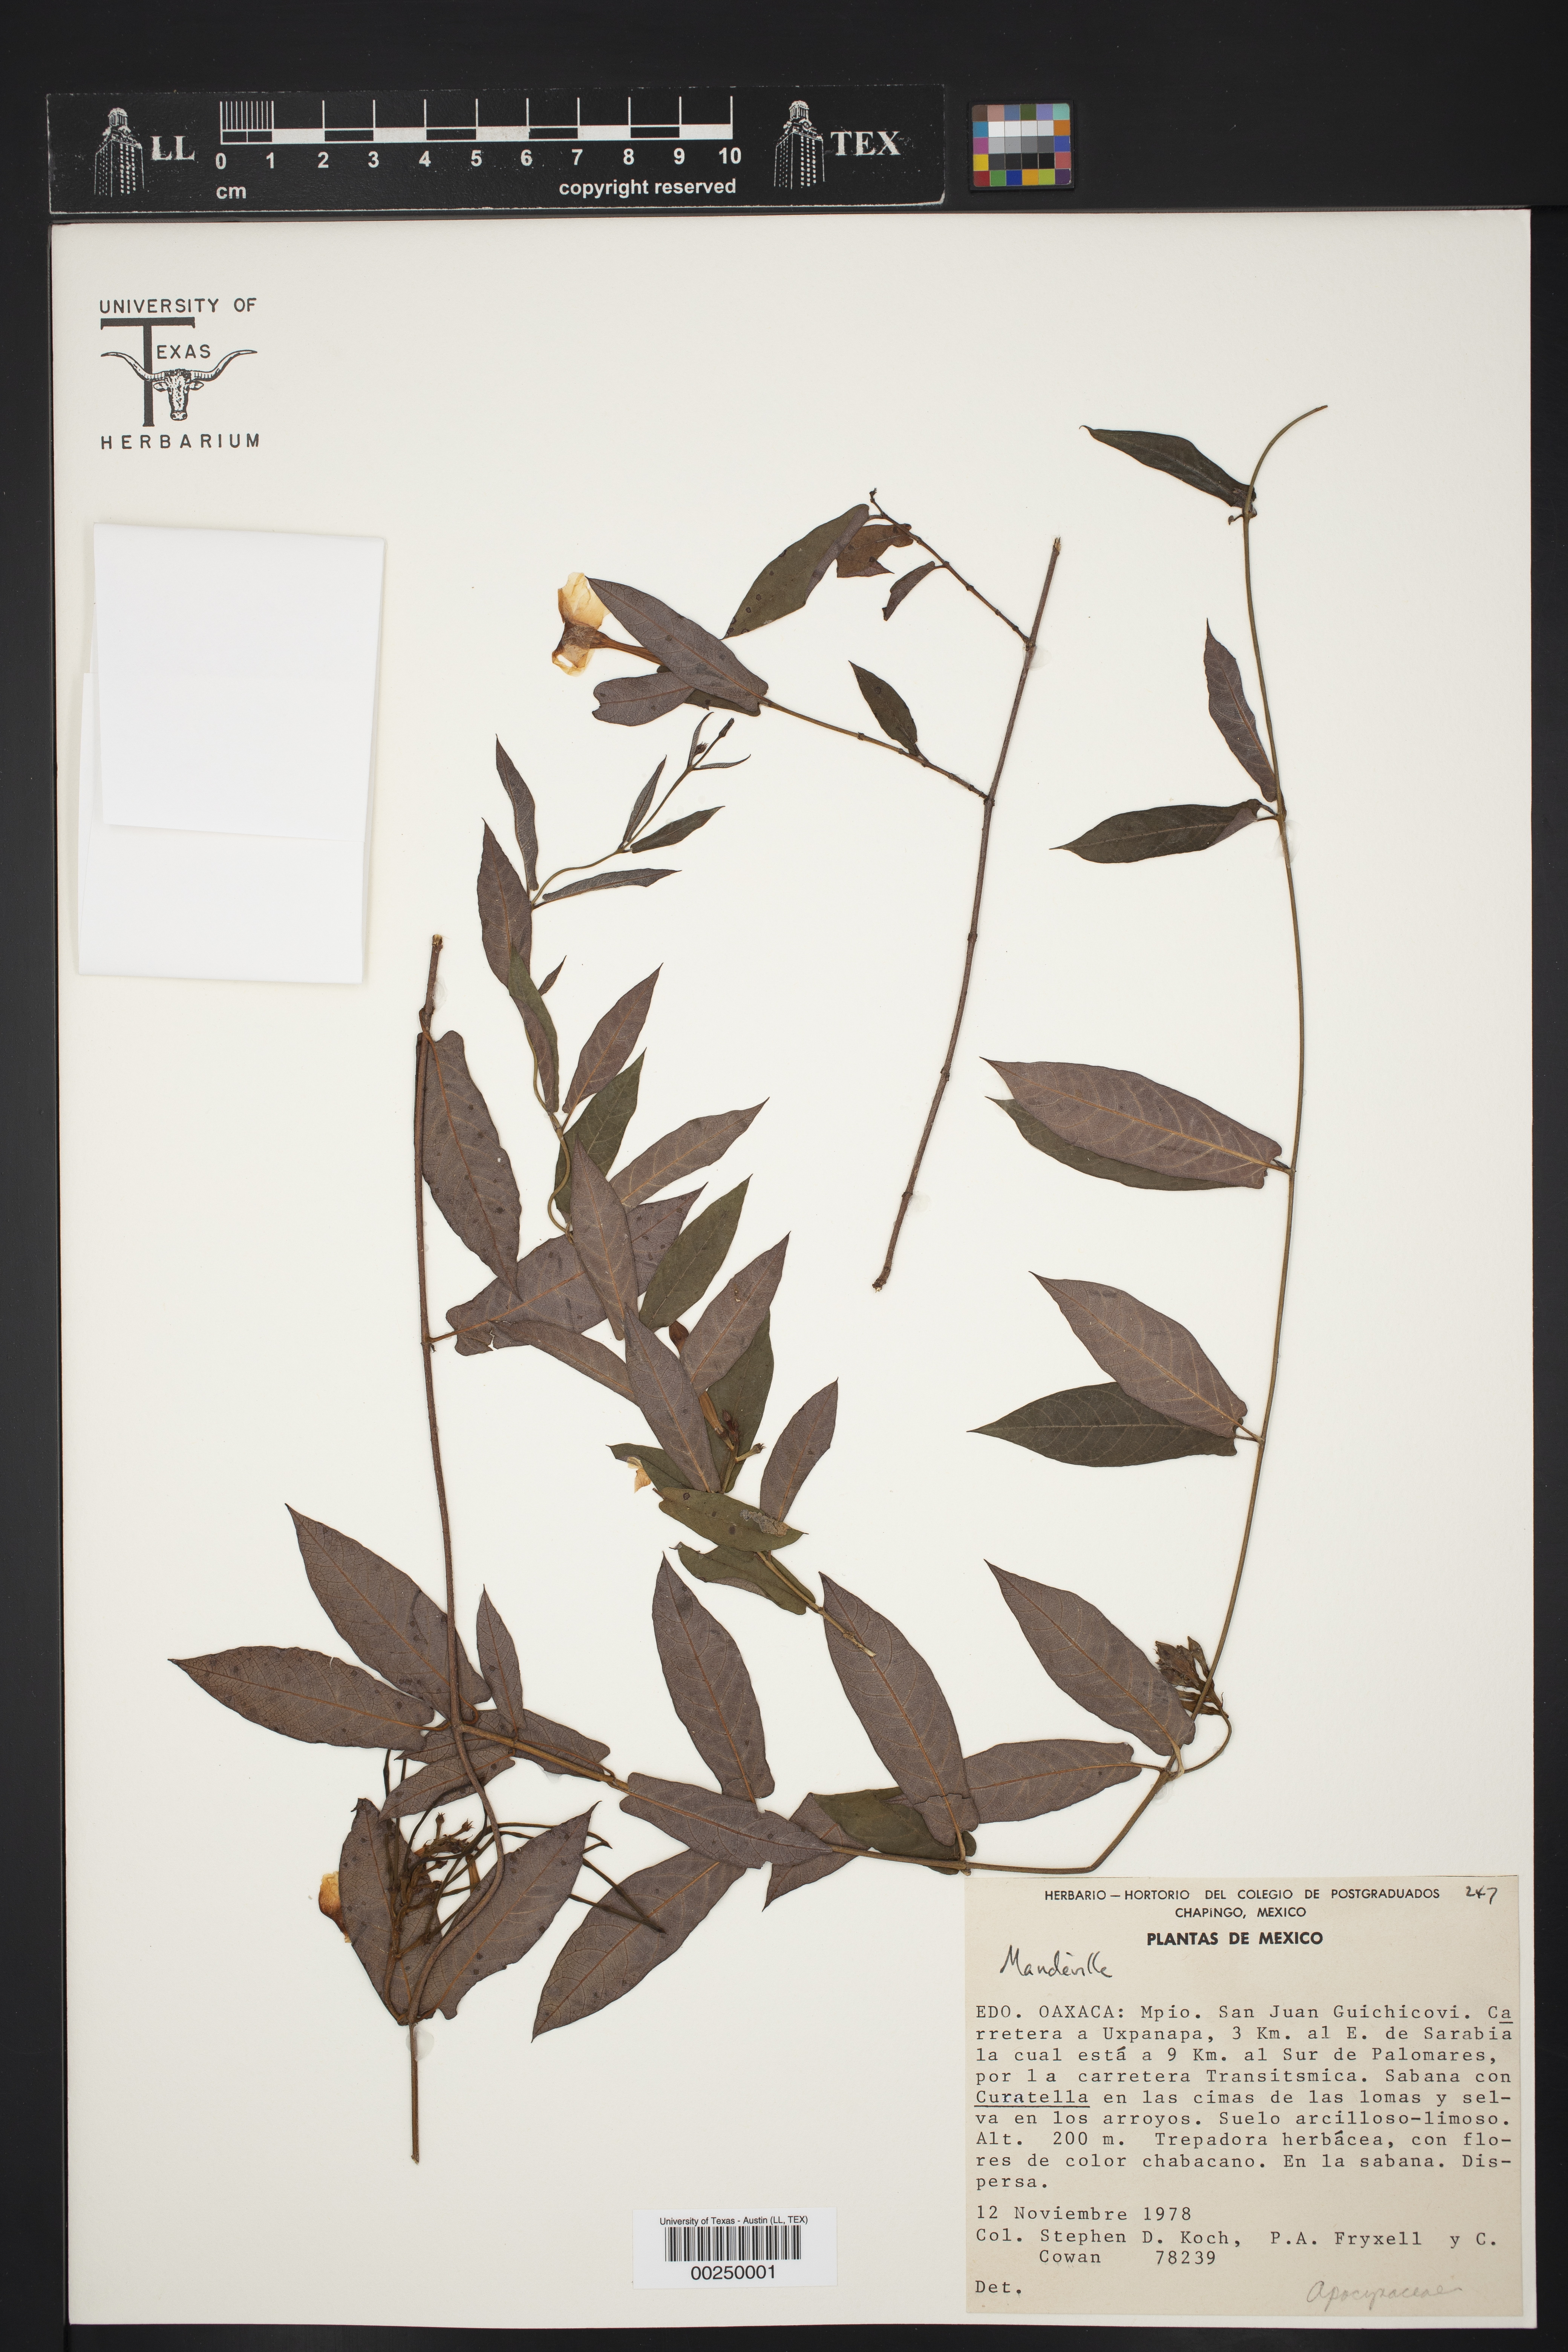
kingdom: Plantae
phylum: Tracheophyta
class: Magnoliopsida
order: Gentianales
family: Apocynaceae
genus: Mandevilla
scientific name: Mandevilla subsagittata
